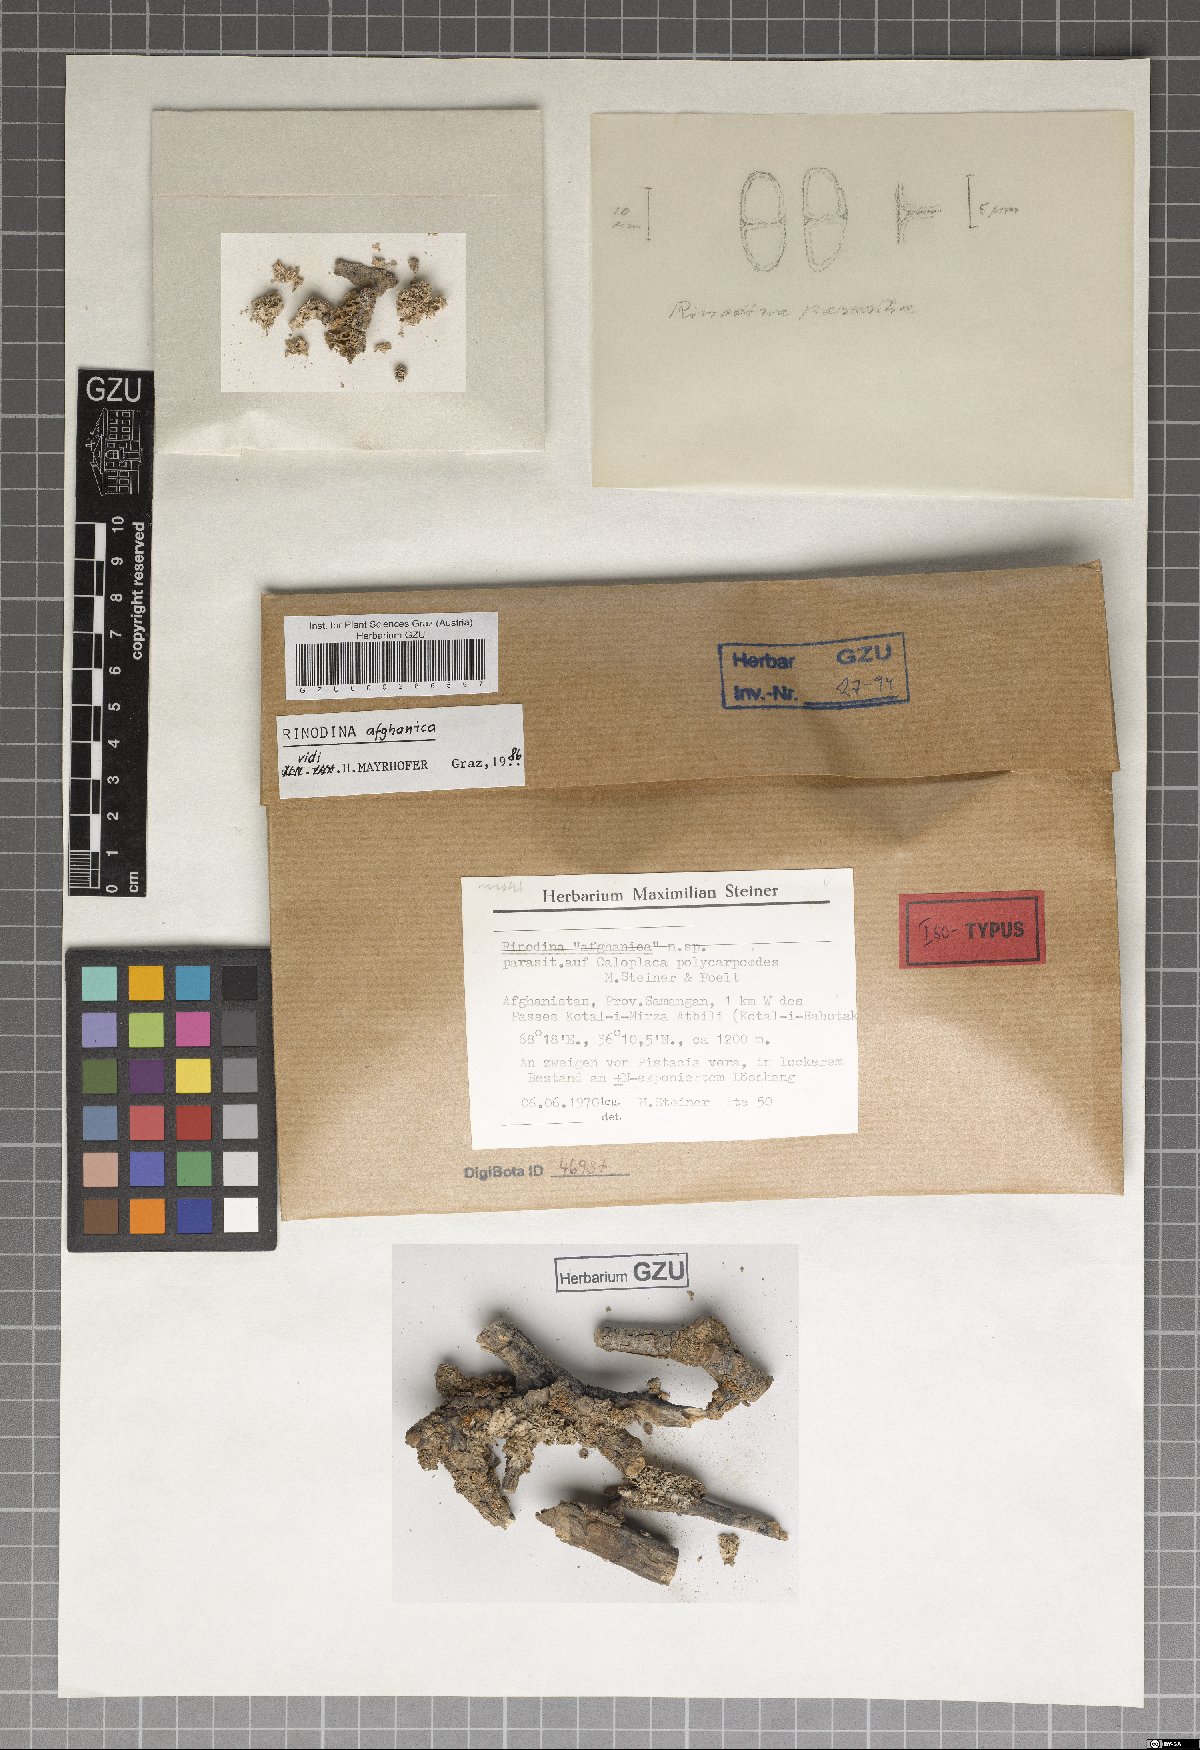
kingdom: Fungi
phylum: Ascomycota
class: Lecanoromycetes
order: Caliciales
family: Physciaceae
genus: Oxnerella
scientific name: Oxnerella afghanica
